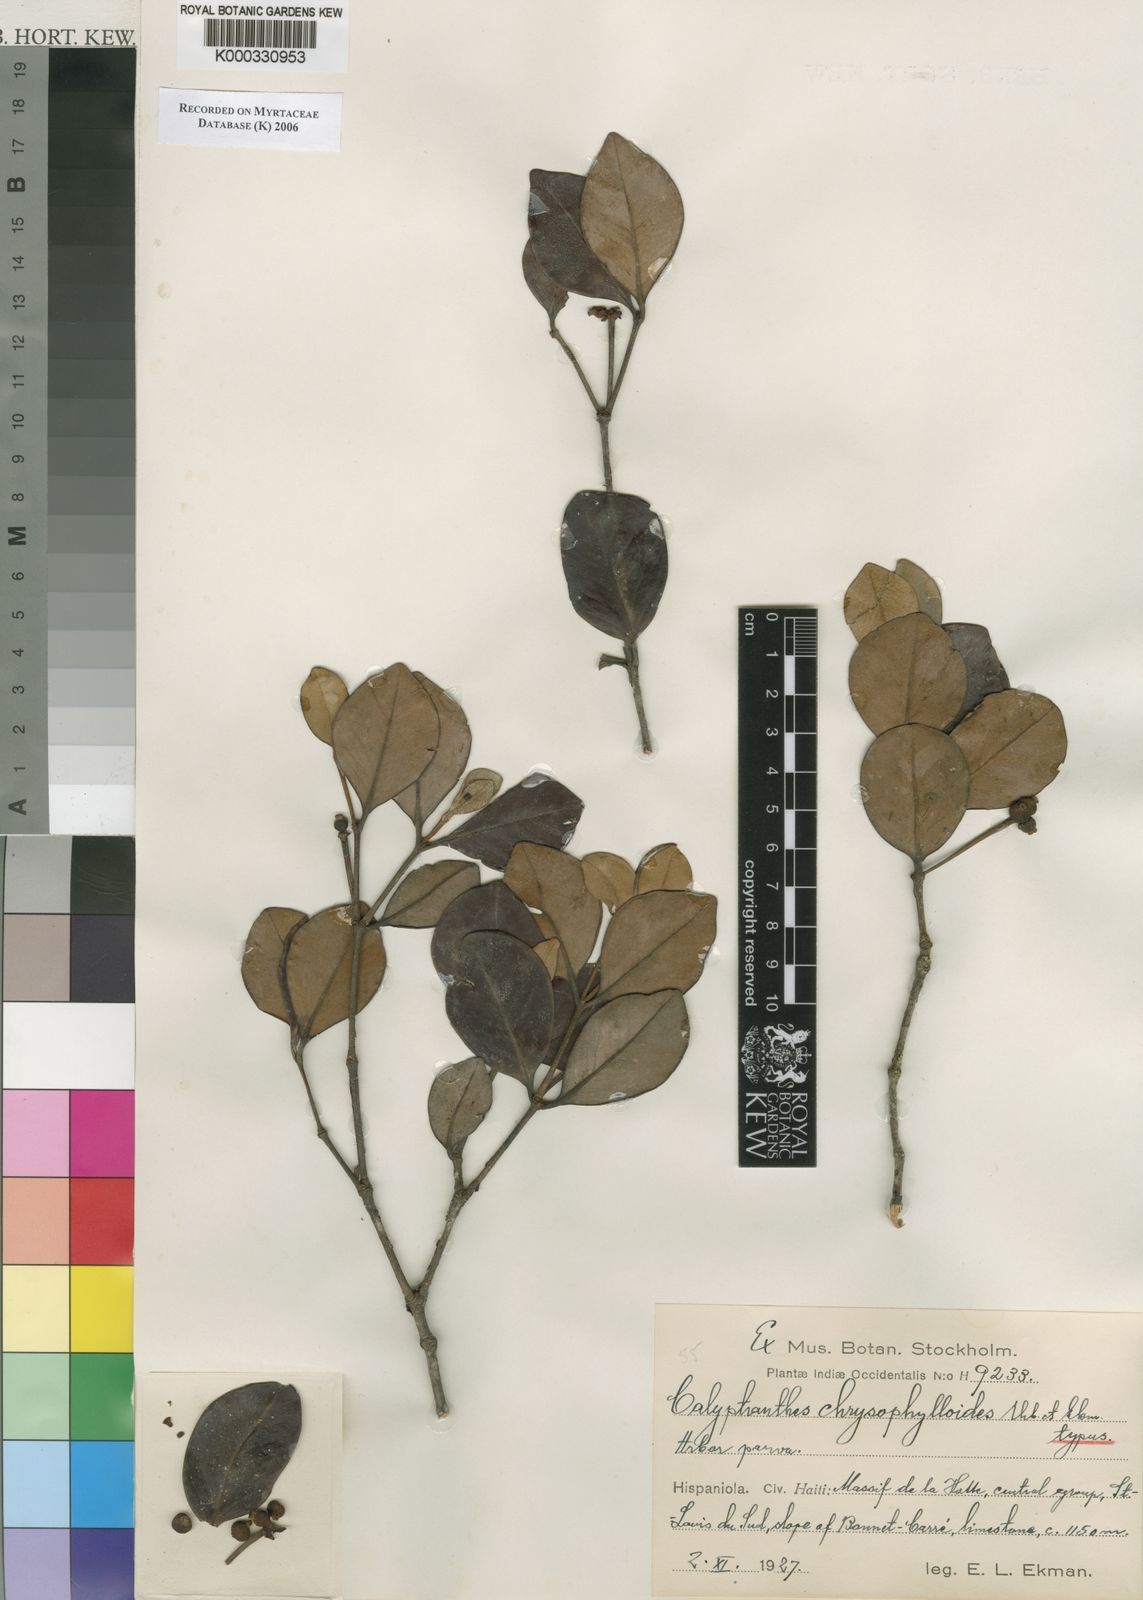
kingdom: Plantae
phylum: Tracheophyta
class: Magnoliopsida
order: Myrtales
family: Myrtaceae
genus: Myrcia
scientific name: Myrcia chrysophylloides
